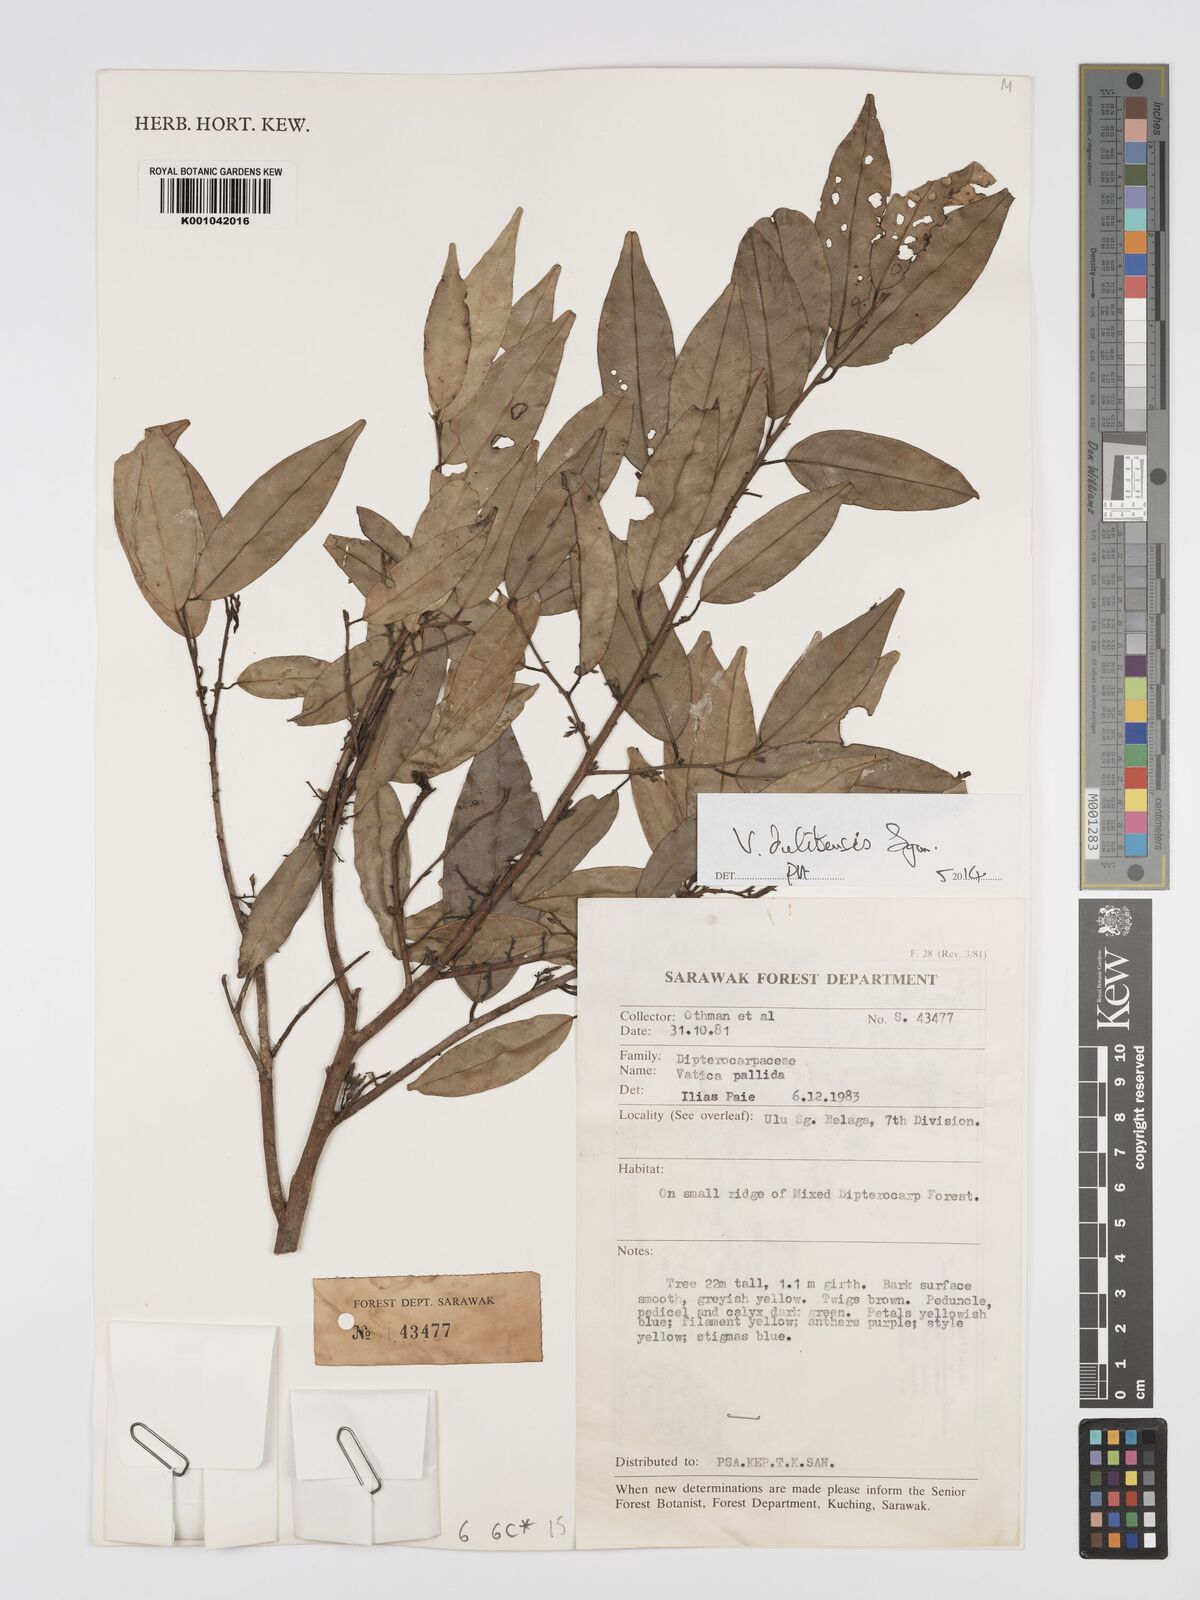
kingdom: Plantae
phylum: Tracheophyta
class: Magnoliopsida
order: Malvales
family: Dipterocarpaceae
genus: Vatica
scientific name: Vatica dulitensis
